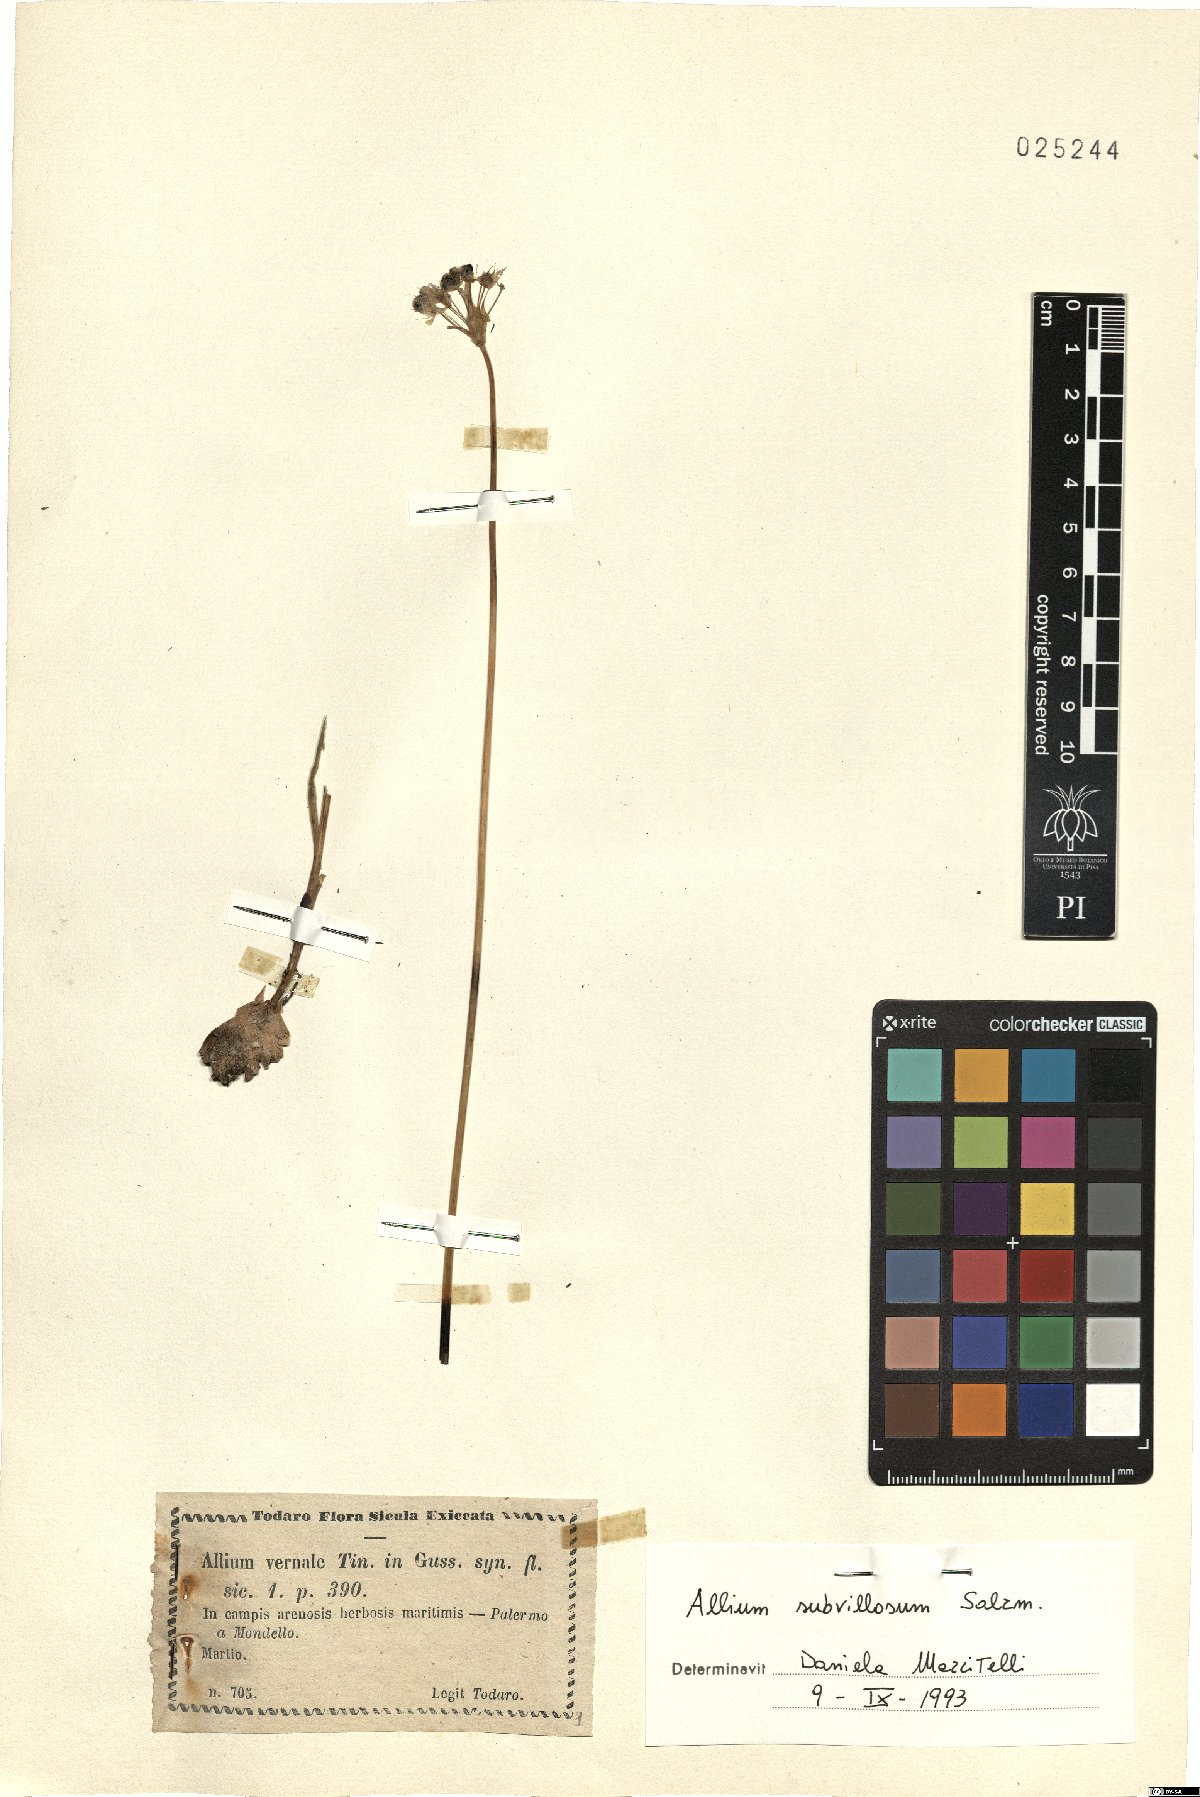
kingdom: Plantae
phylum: Tracheophyta
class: Liliopsida
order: Asparagales
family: Amaryllidaceae
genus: Allium
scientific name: Allium subvillosum
